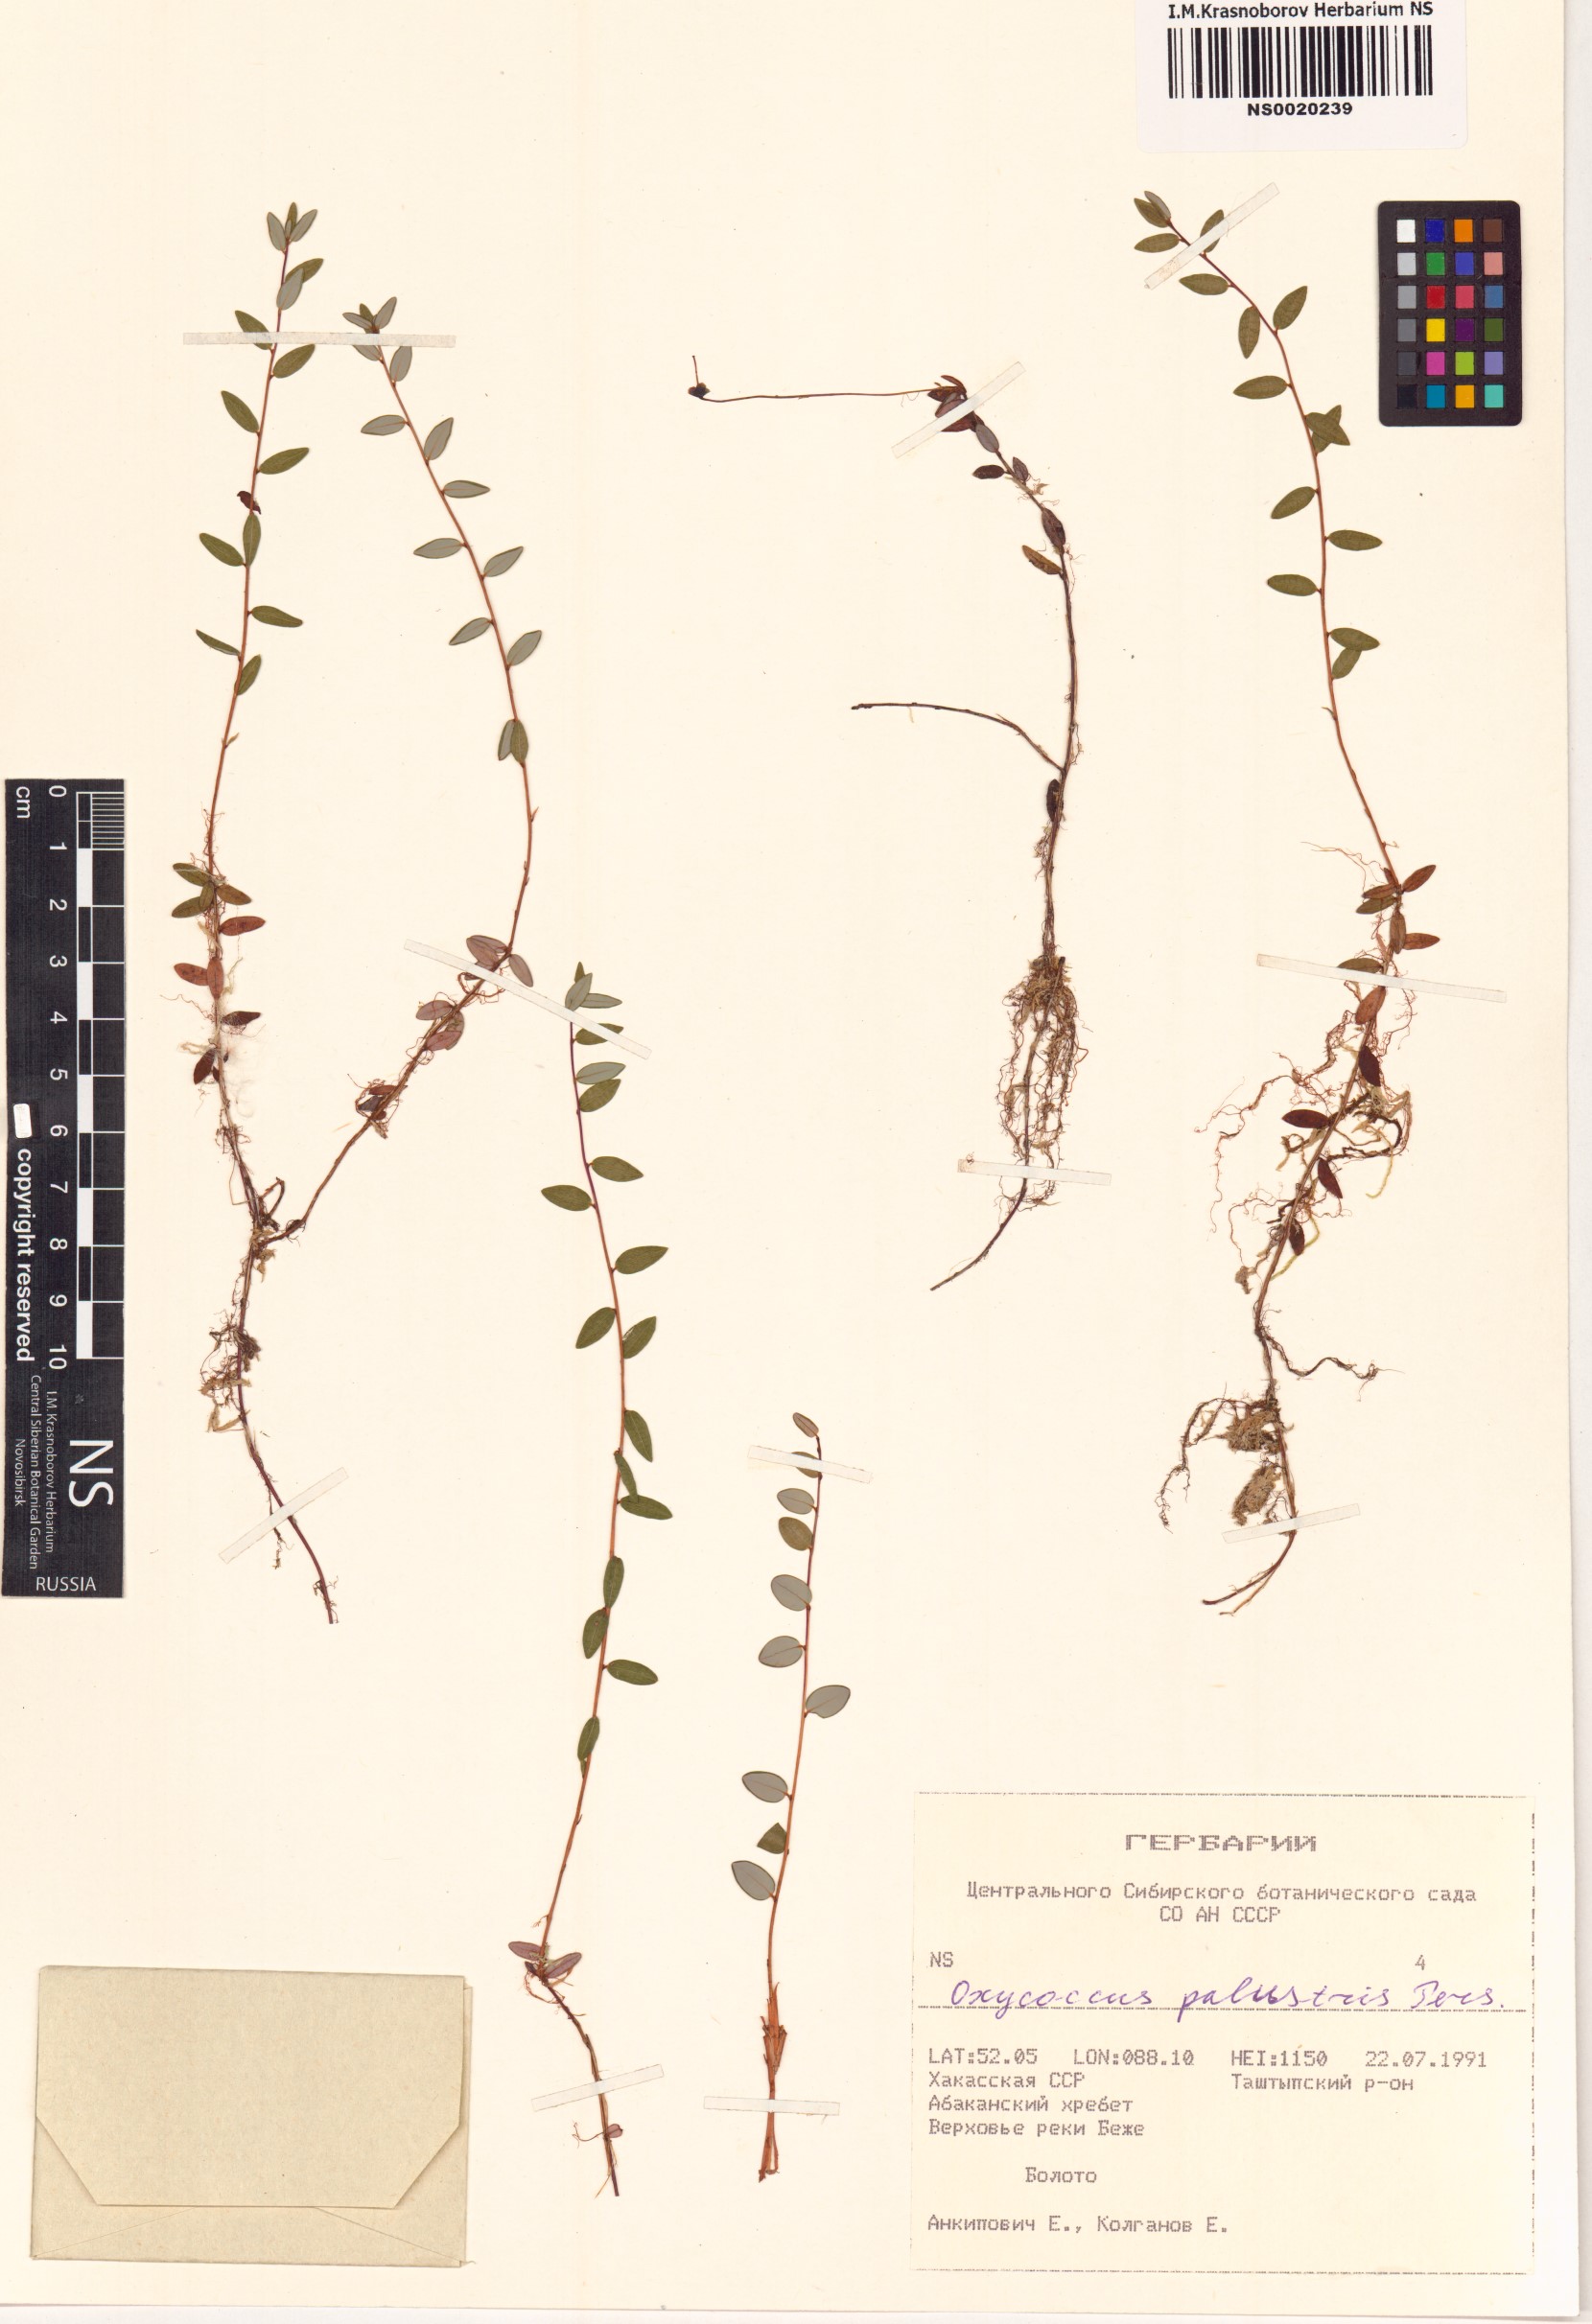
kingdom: Plantae
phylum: Tracheophyta
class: Magnoliopsida
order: Ericales
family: Ericaceae
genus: Vaccinium
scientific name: Vaccinium oxycoccos
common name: Cranberry
